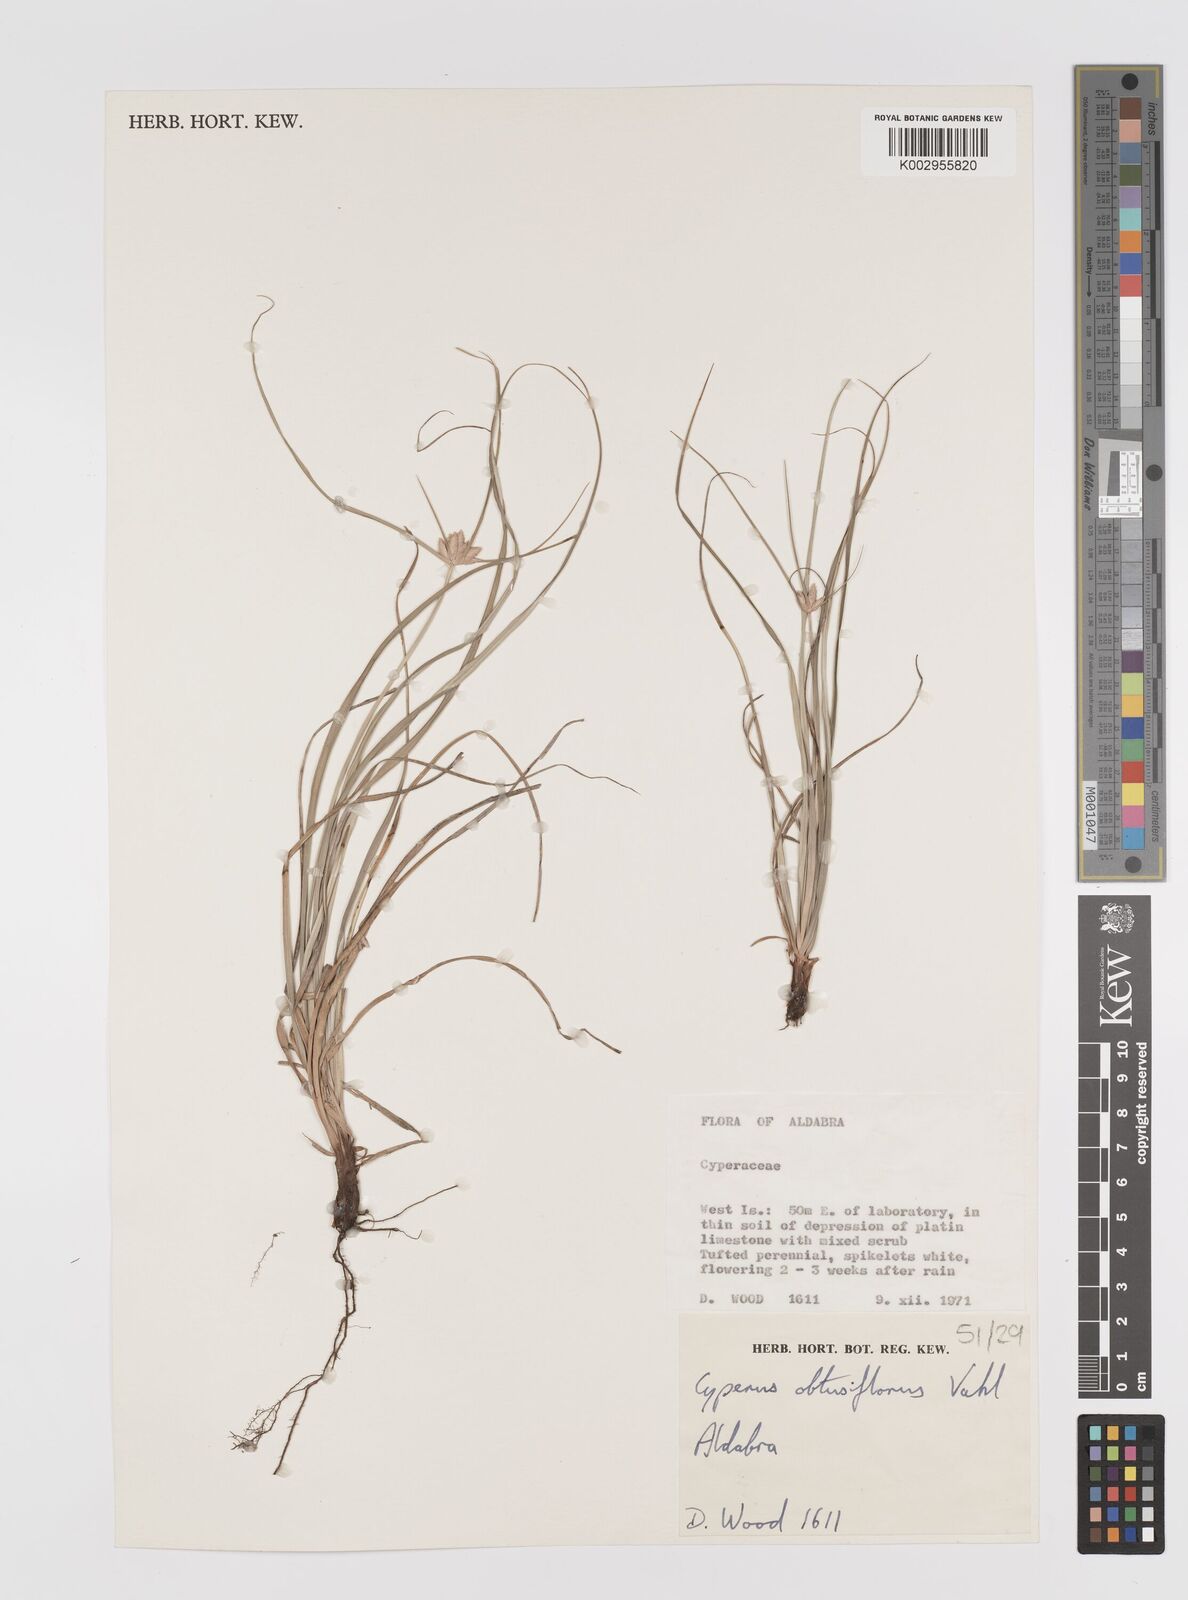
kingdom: Plantae
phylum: Tracheophyta
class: Liliopsida
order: Poales
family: Cyperaceae
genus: Cyperus
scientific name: Cyperus niveus
